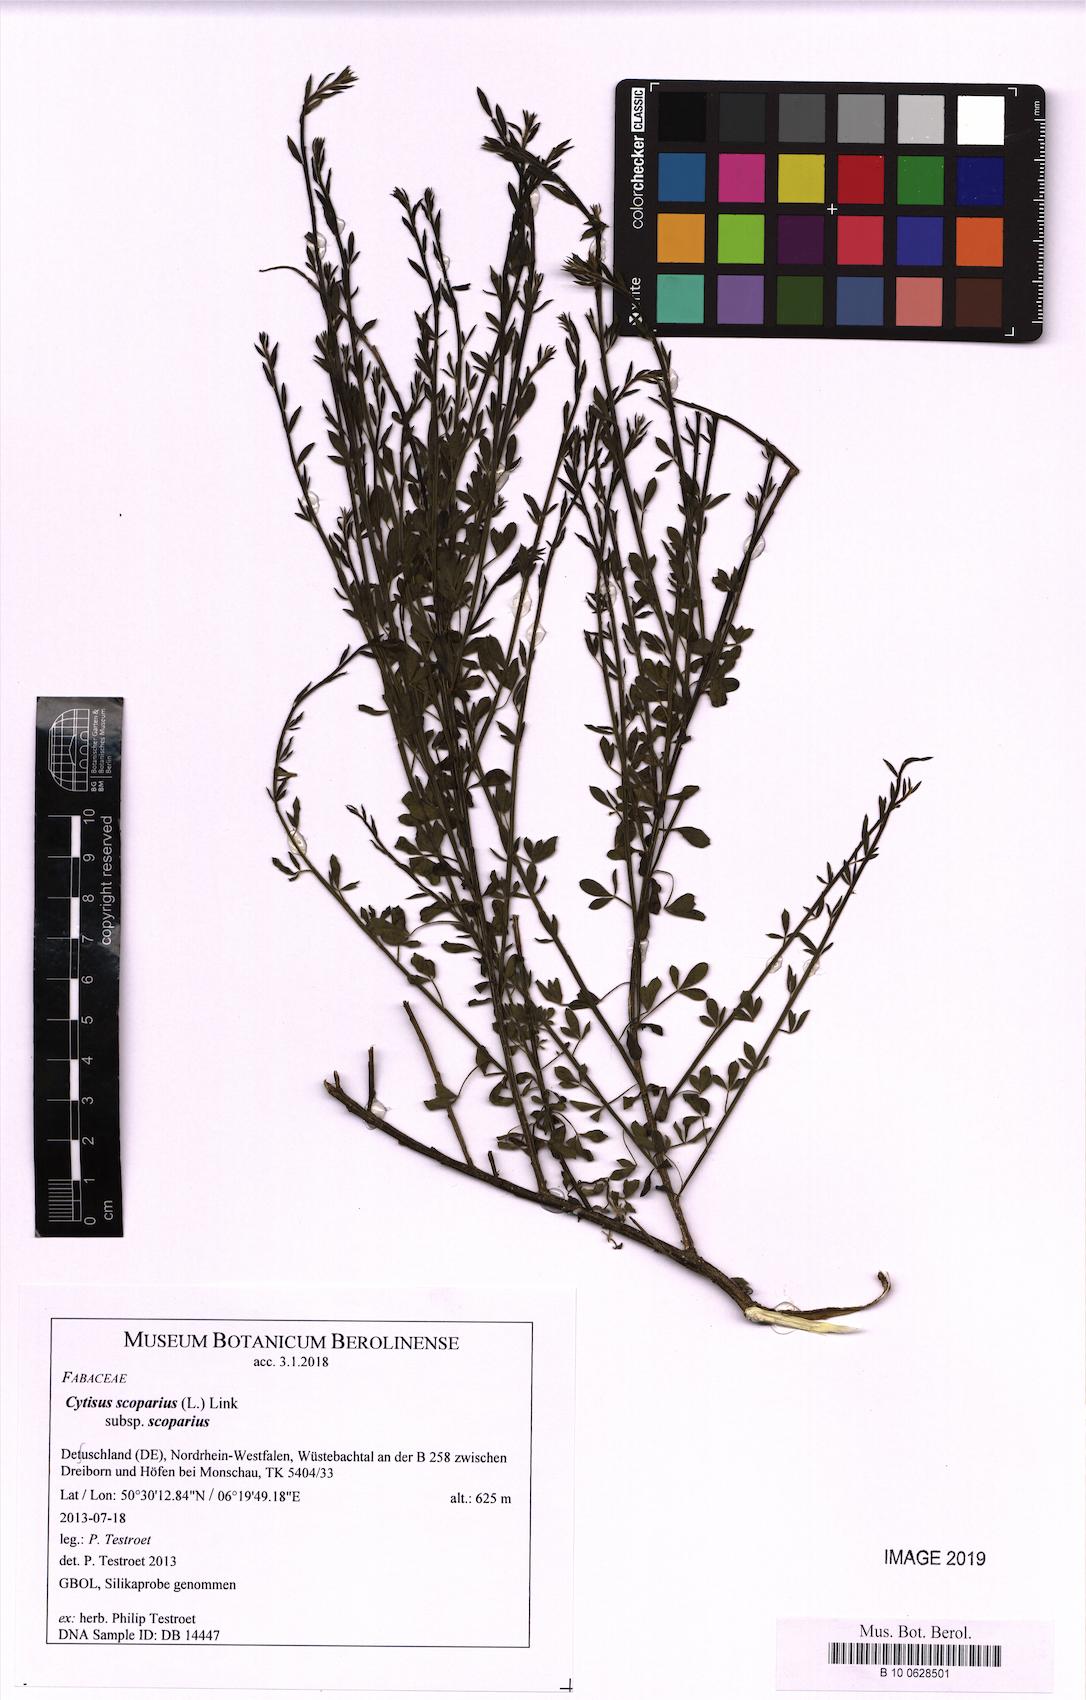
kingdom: Plantae
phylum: Tracheophyta
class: Magnoliopsida
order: Fabales
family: Fabaceae
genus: Cytisus
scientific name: Cytisus scoparius
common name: Scotch broom
